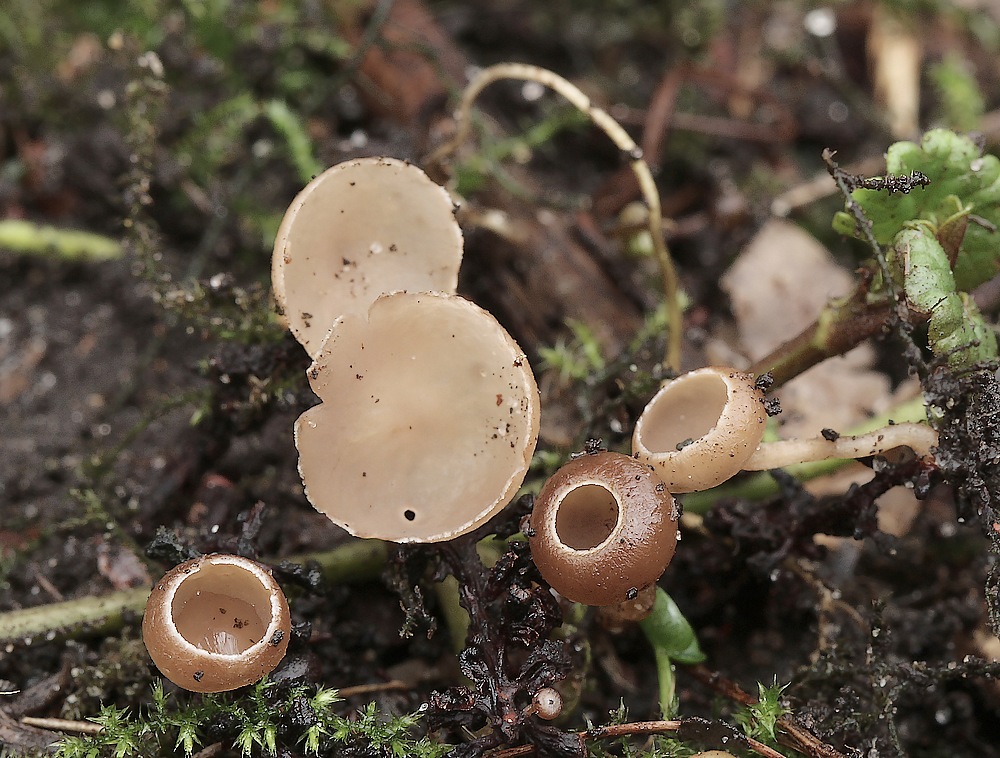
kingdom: Fungi
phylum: Ascomycota
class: Leotiomycetes
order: Helotiales
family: Sclerotiniaceae
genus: Ciboria
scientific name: Ciboria amentacea
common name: ellerakle-knoldskive
